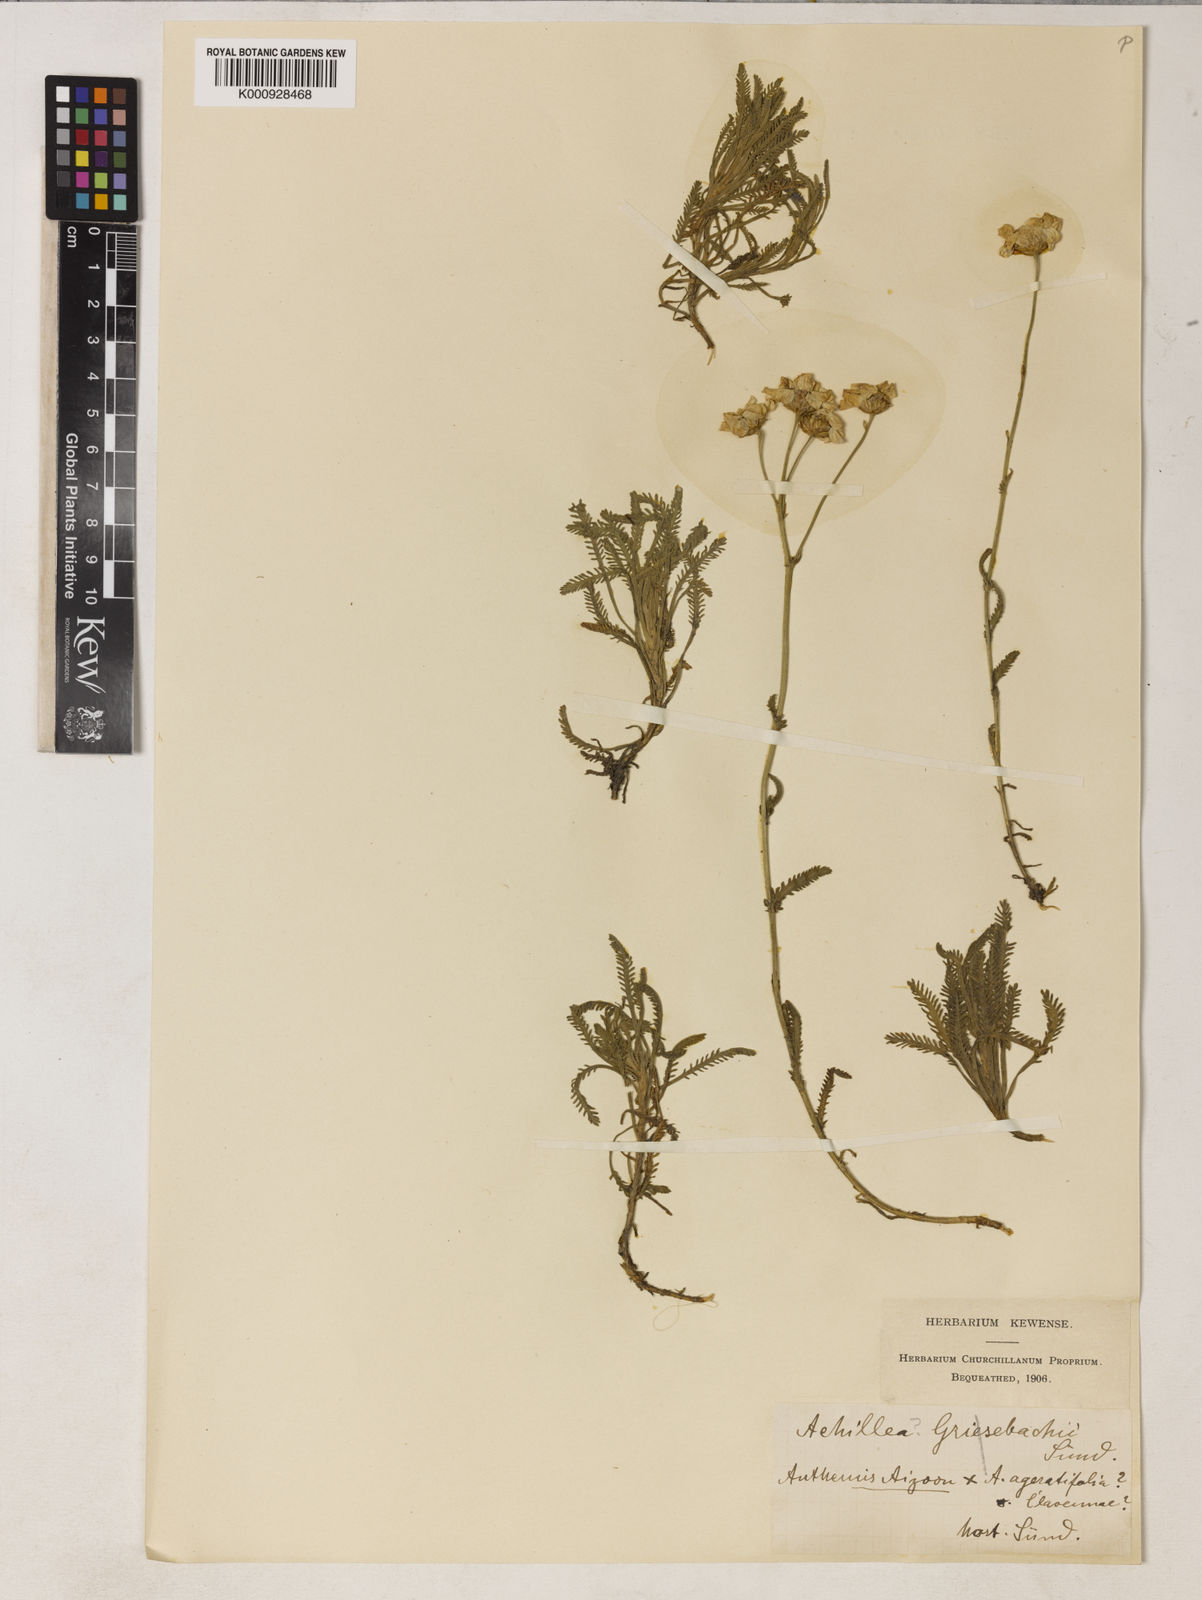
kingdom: Plantae
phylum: Tracheophyta
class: Magnoliopsida
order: Asterales
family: Asteraceae
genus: Achillea
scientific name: Achillea
